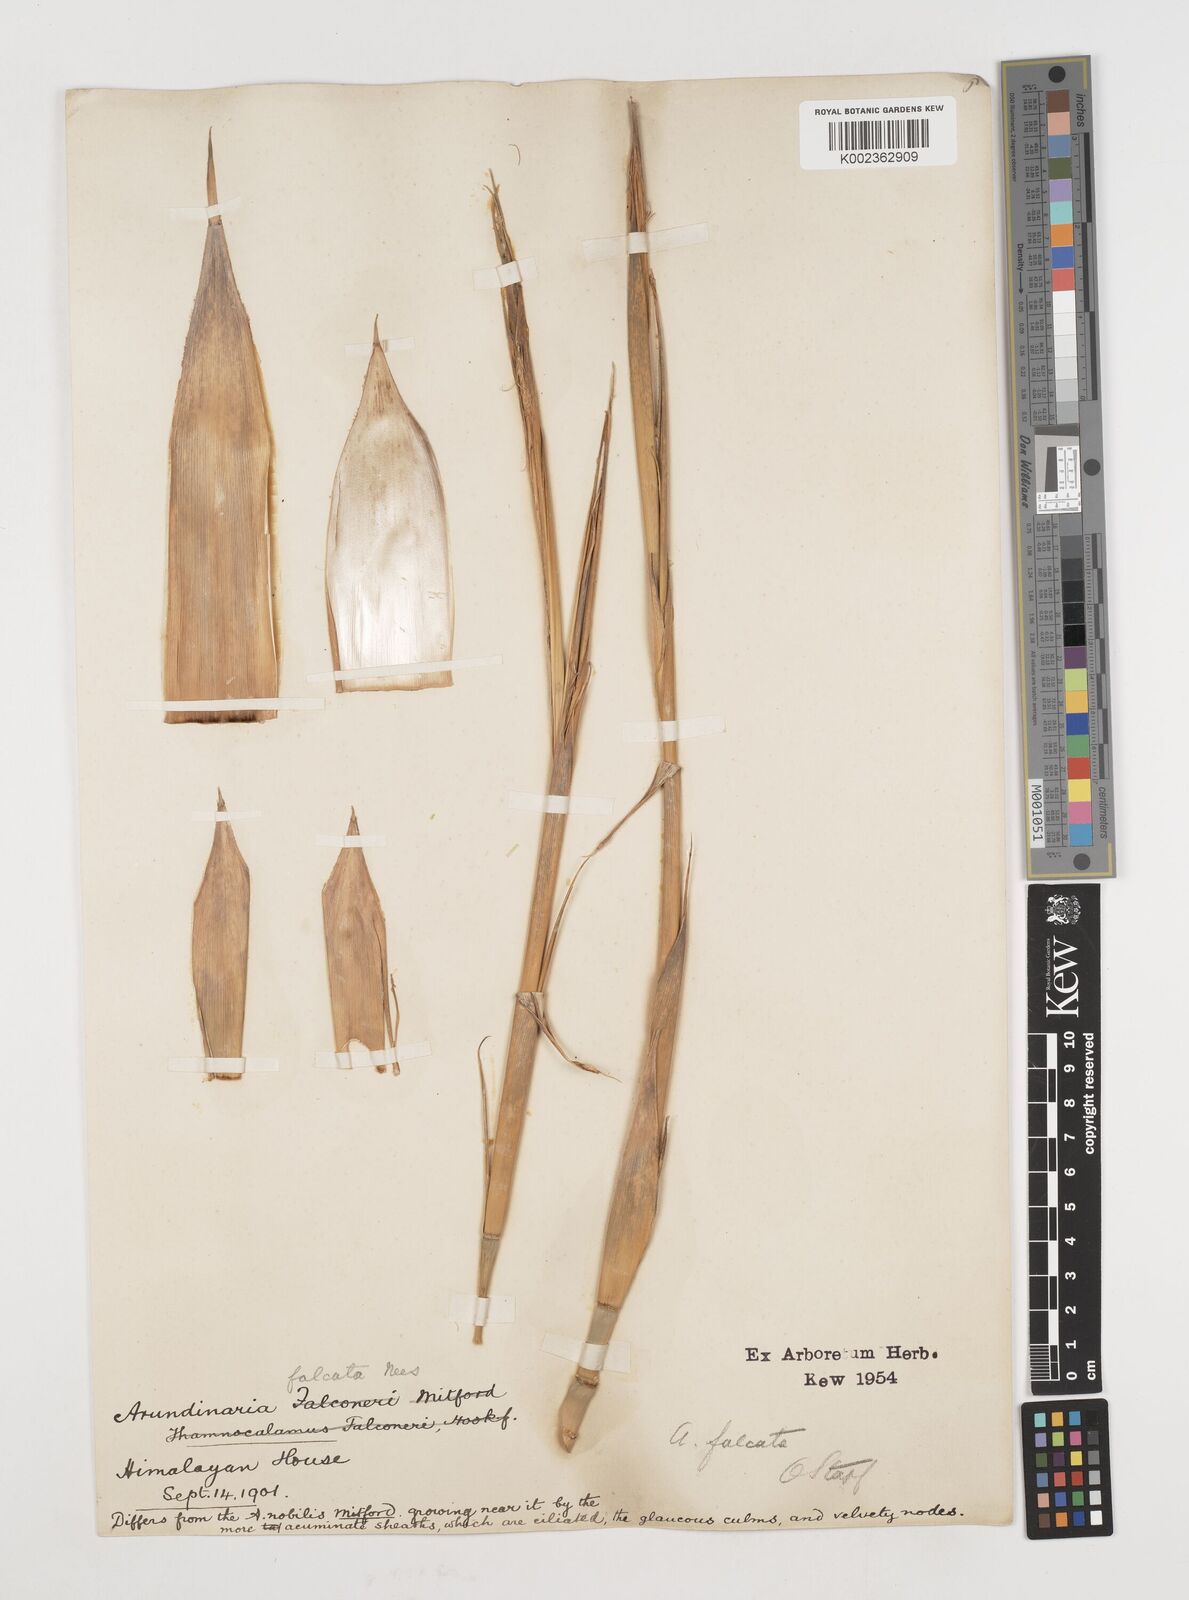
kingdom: Plantae
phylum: Tracheophyta
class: Liliopsida
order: Poales
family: Poaceae
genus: Drepanostachyum
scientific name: Drepanostachyum falcatum
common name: Himalayan bamboo
